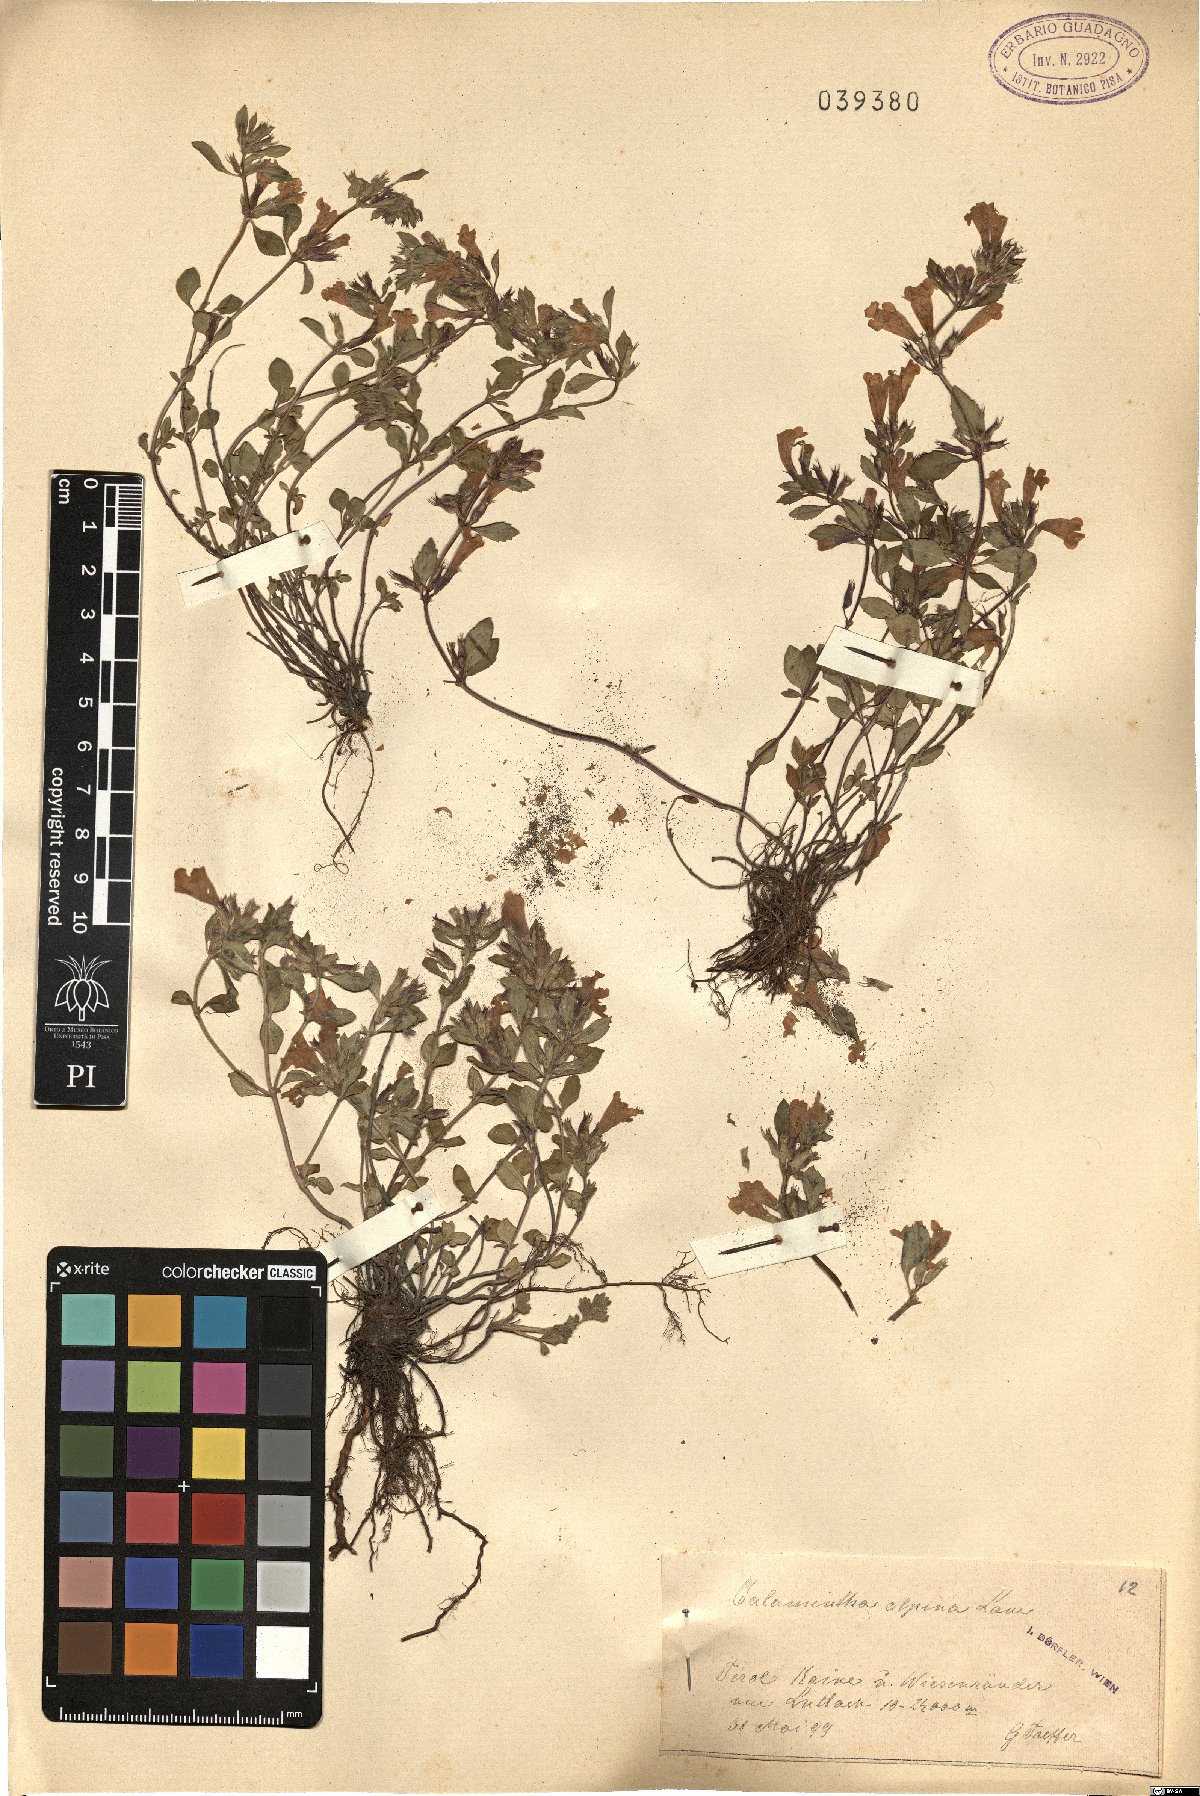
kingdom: Plantae
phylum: Tracheophyta
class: Magnoliopsida
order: Lamiales
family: Lamiaceae
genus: Clinopodium
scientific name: Clinopodium alpinum
